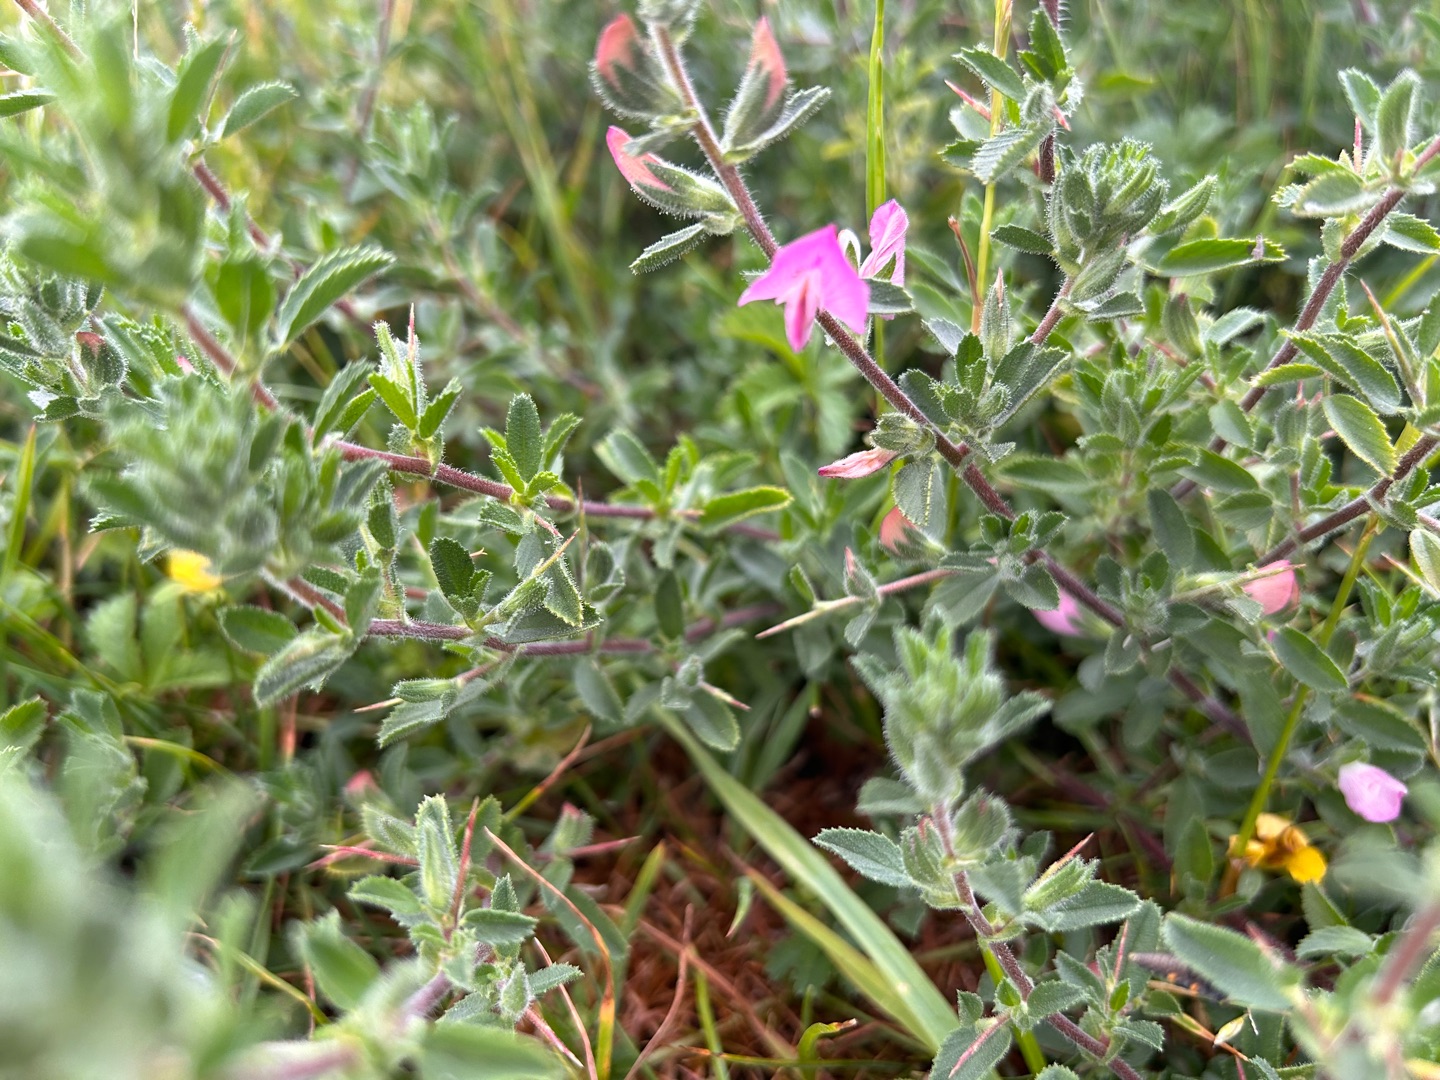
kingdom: Plantae
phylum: Tracheophyta
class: Magnoliopsida
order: Fabales
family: Fabaceae
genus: Ononis
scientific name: Ononis spinosa
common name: Mark-krageklo
